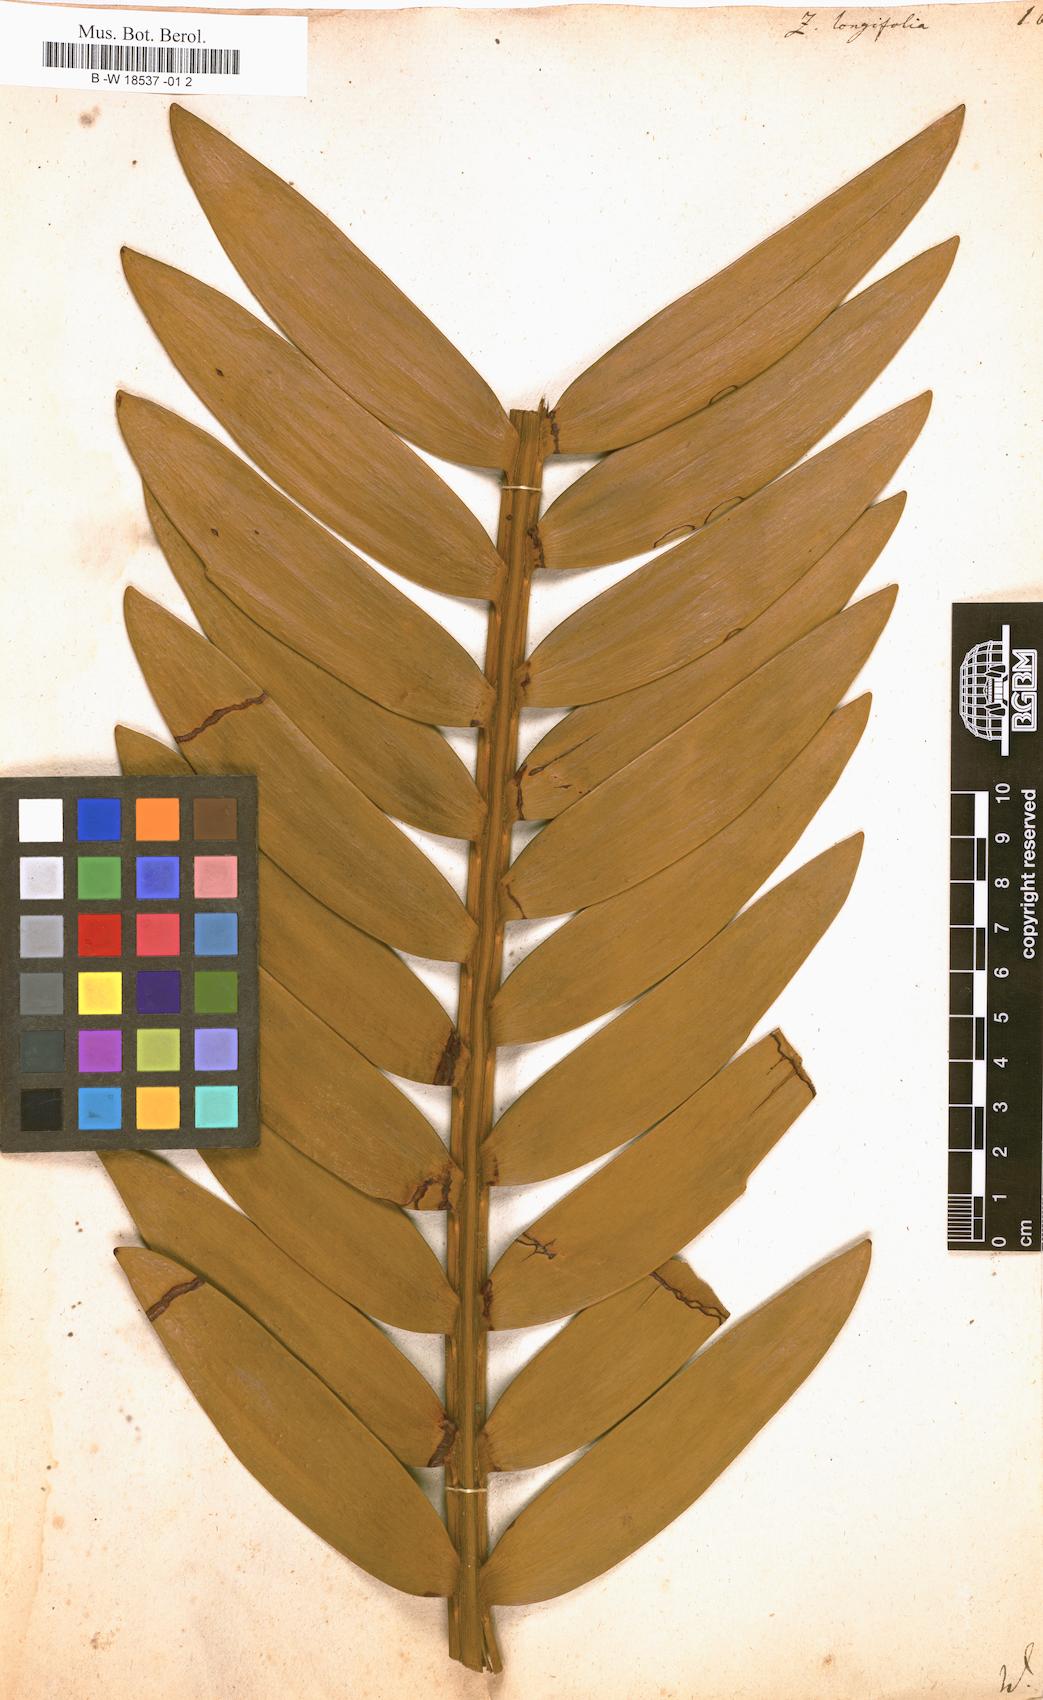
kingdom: Plantae
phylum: Tracheophyta
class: Cycadopsida
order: Cycadales
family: Zamiaceae
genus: Encephalartos
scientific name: Encephalartos longifolius
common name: Suurberg cycad
